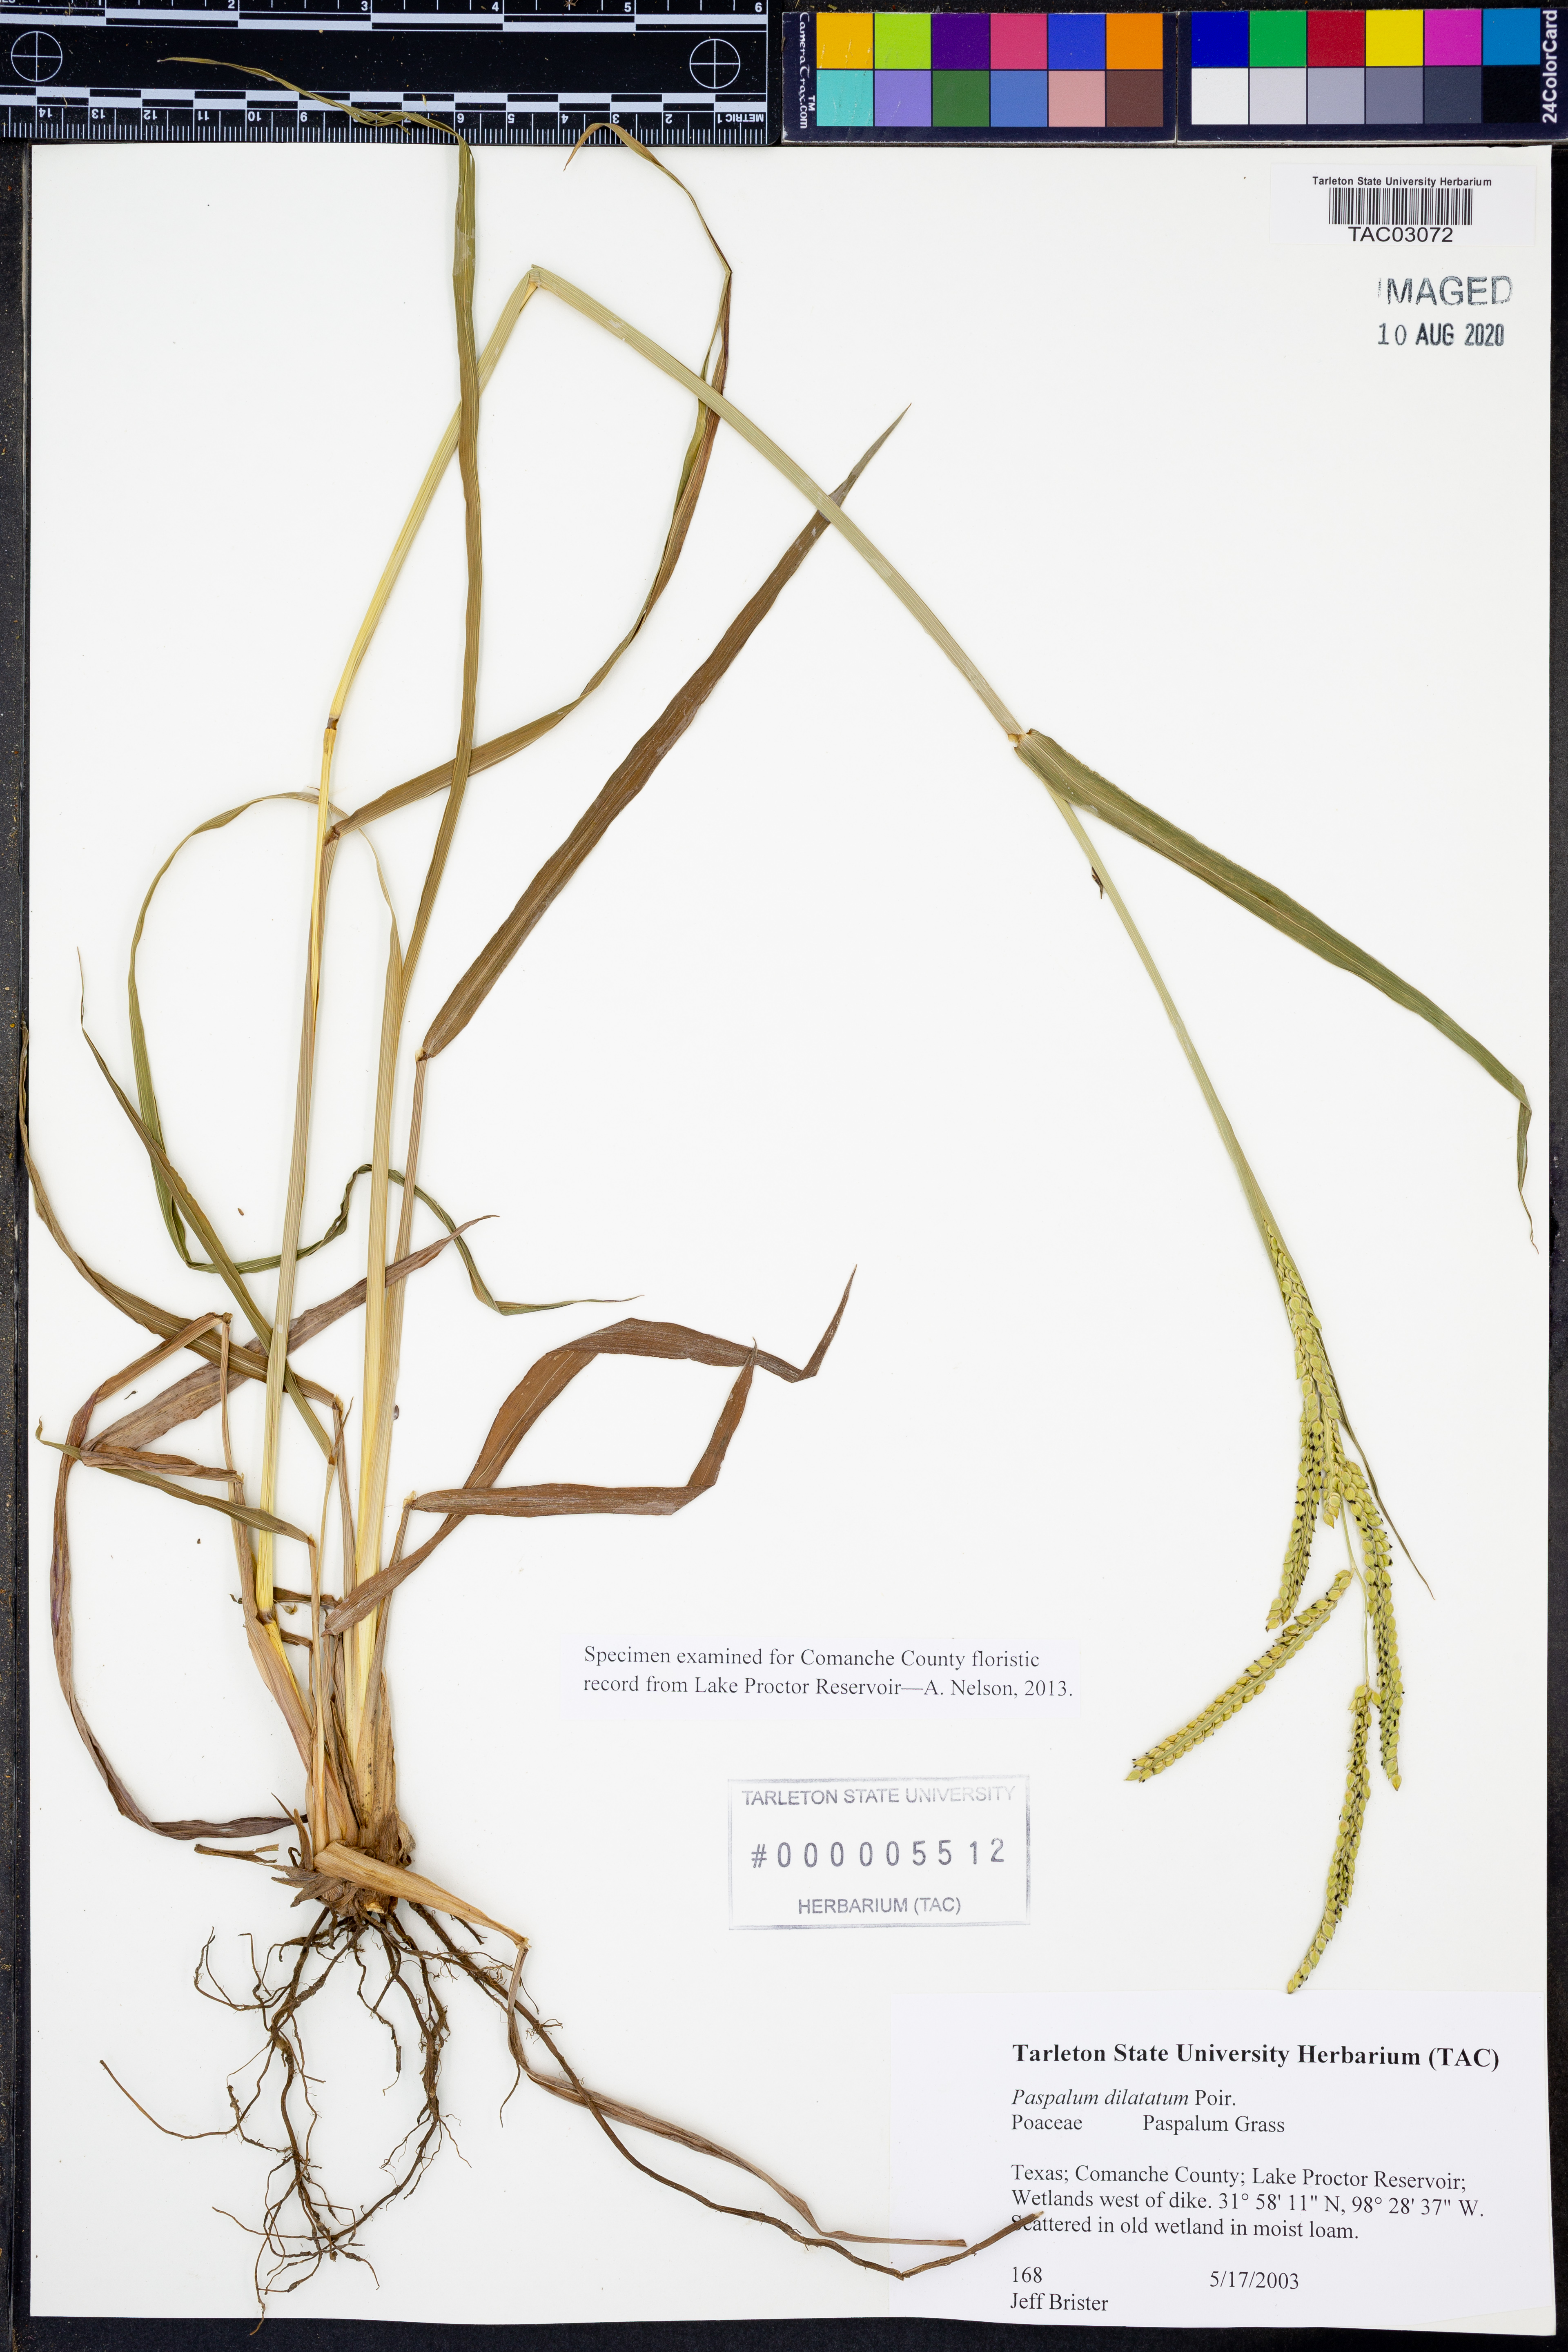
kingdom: Plantae
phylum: Tracheophyta
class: Liliopsida
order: Poales
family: Poaceae
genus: Paspalum
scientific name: Paspalum dilatatum
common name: Dallisgrass
